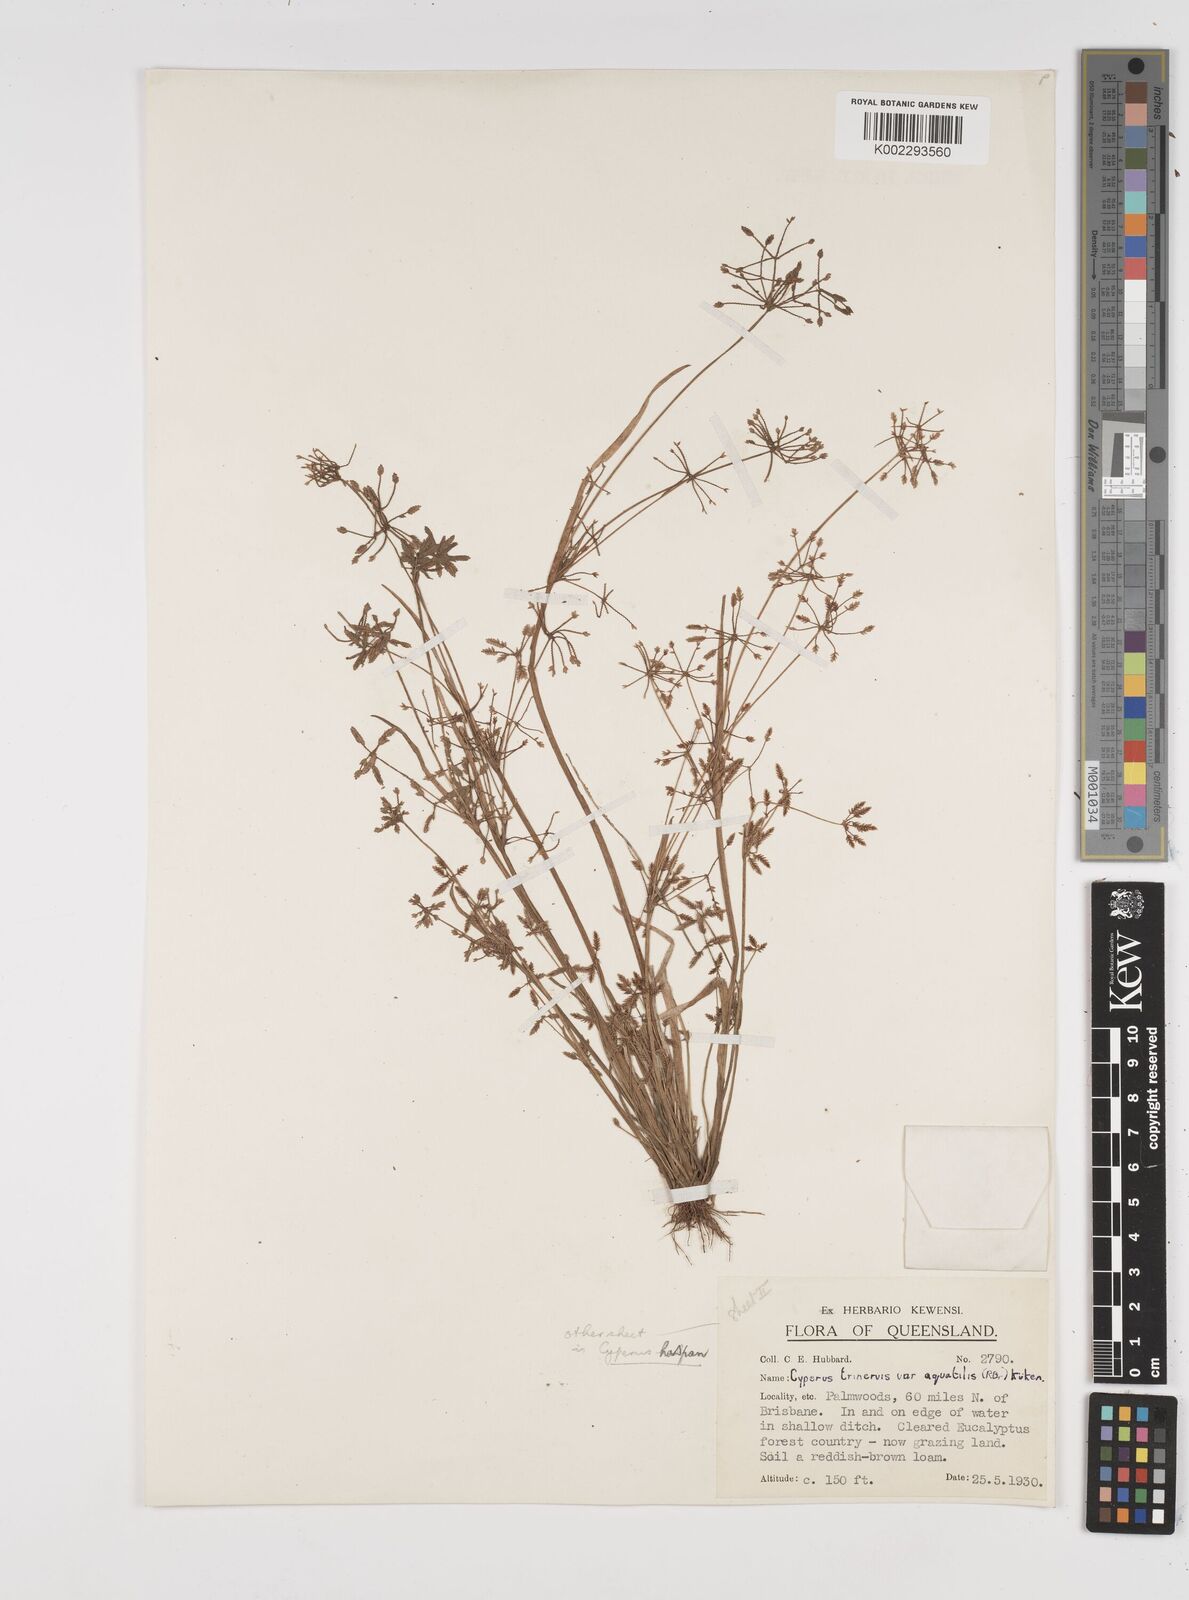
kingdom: Plantae
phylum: Tracheophyta
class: Liliopsida
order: Poales
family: Cyperaceae
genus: Cyperus
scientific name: Cyperus aquatilis
